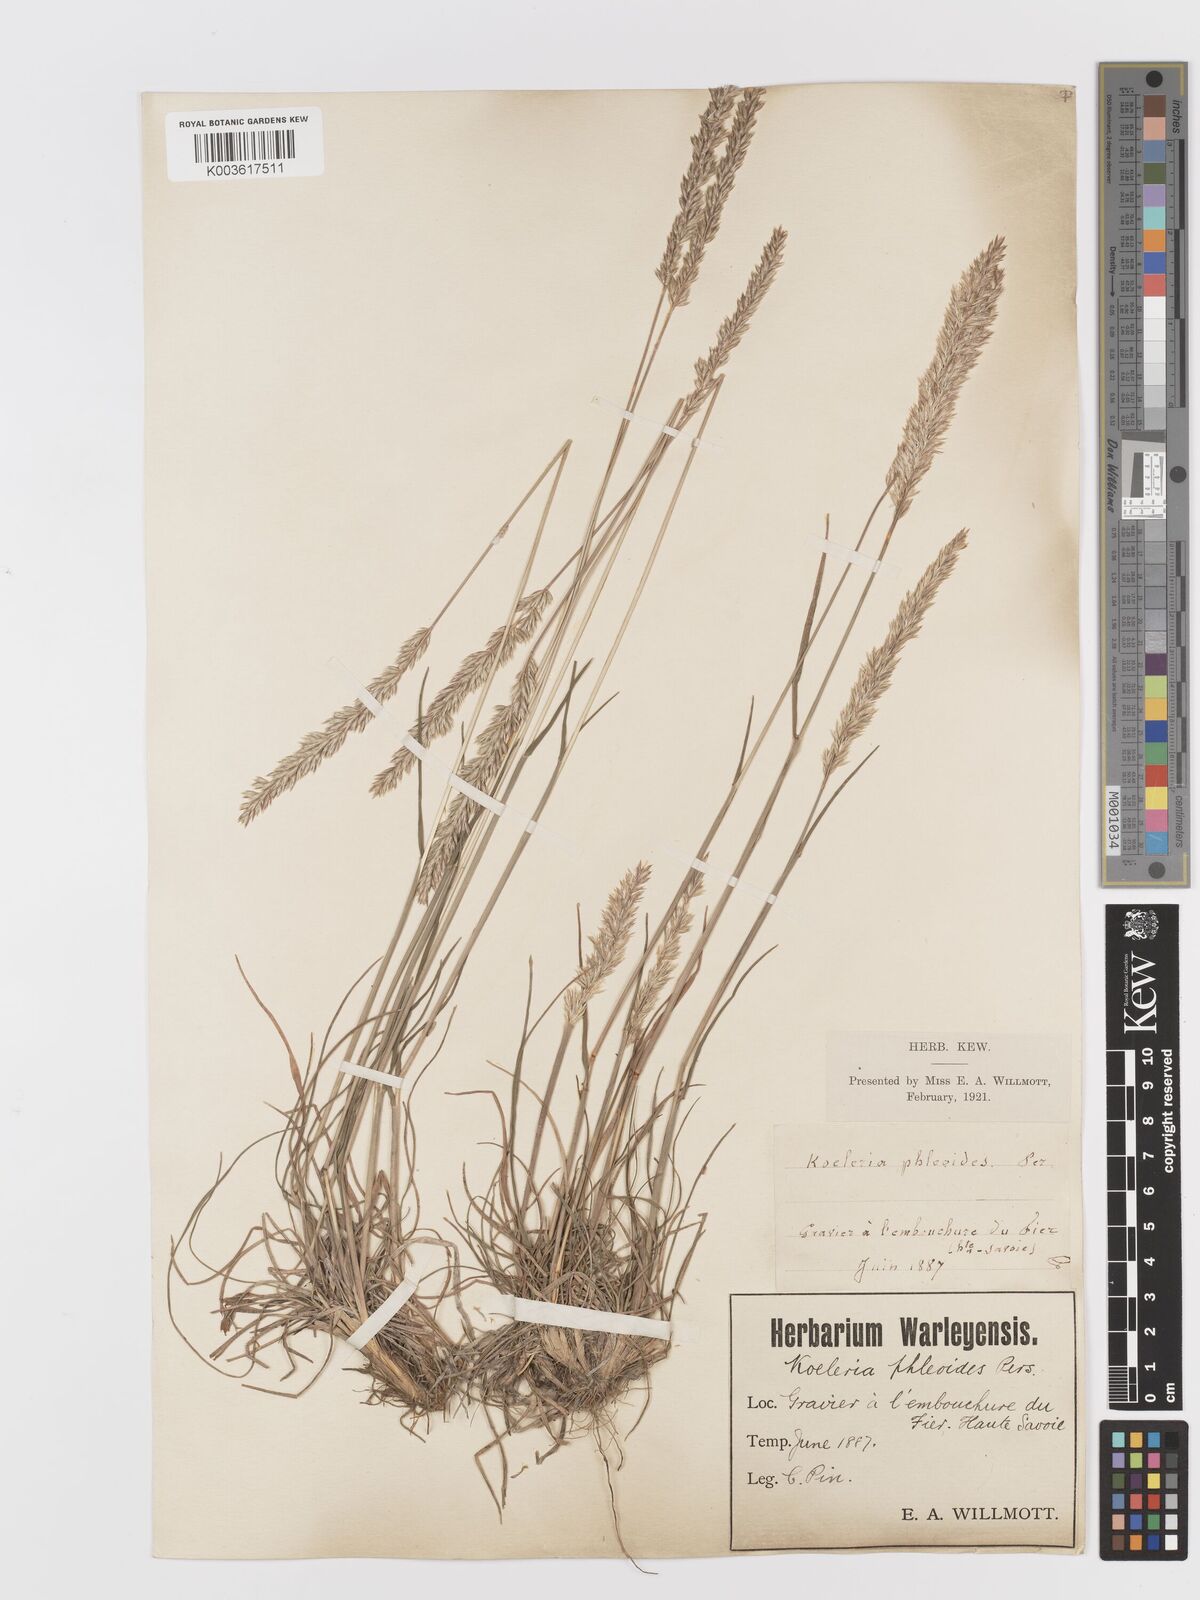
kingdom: Plantae
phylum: Tracheophyta
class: Liliopsida
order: Poales
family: Poaceae
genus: Koeleria
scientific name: Koeleria
